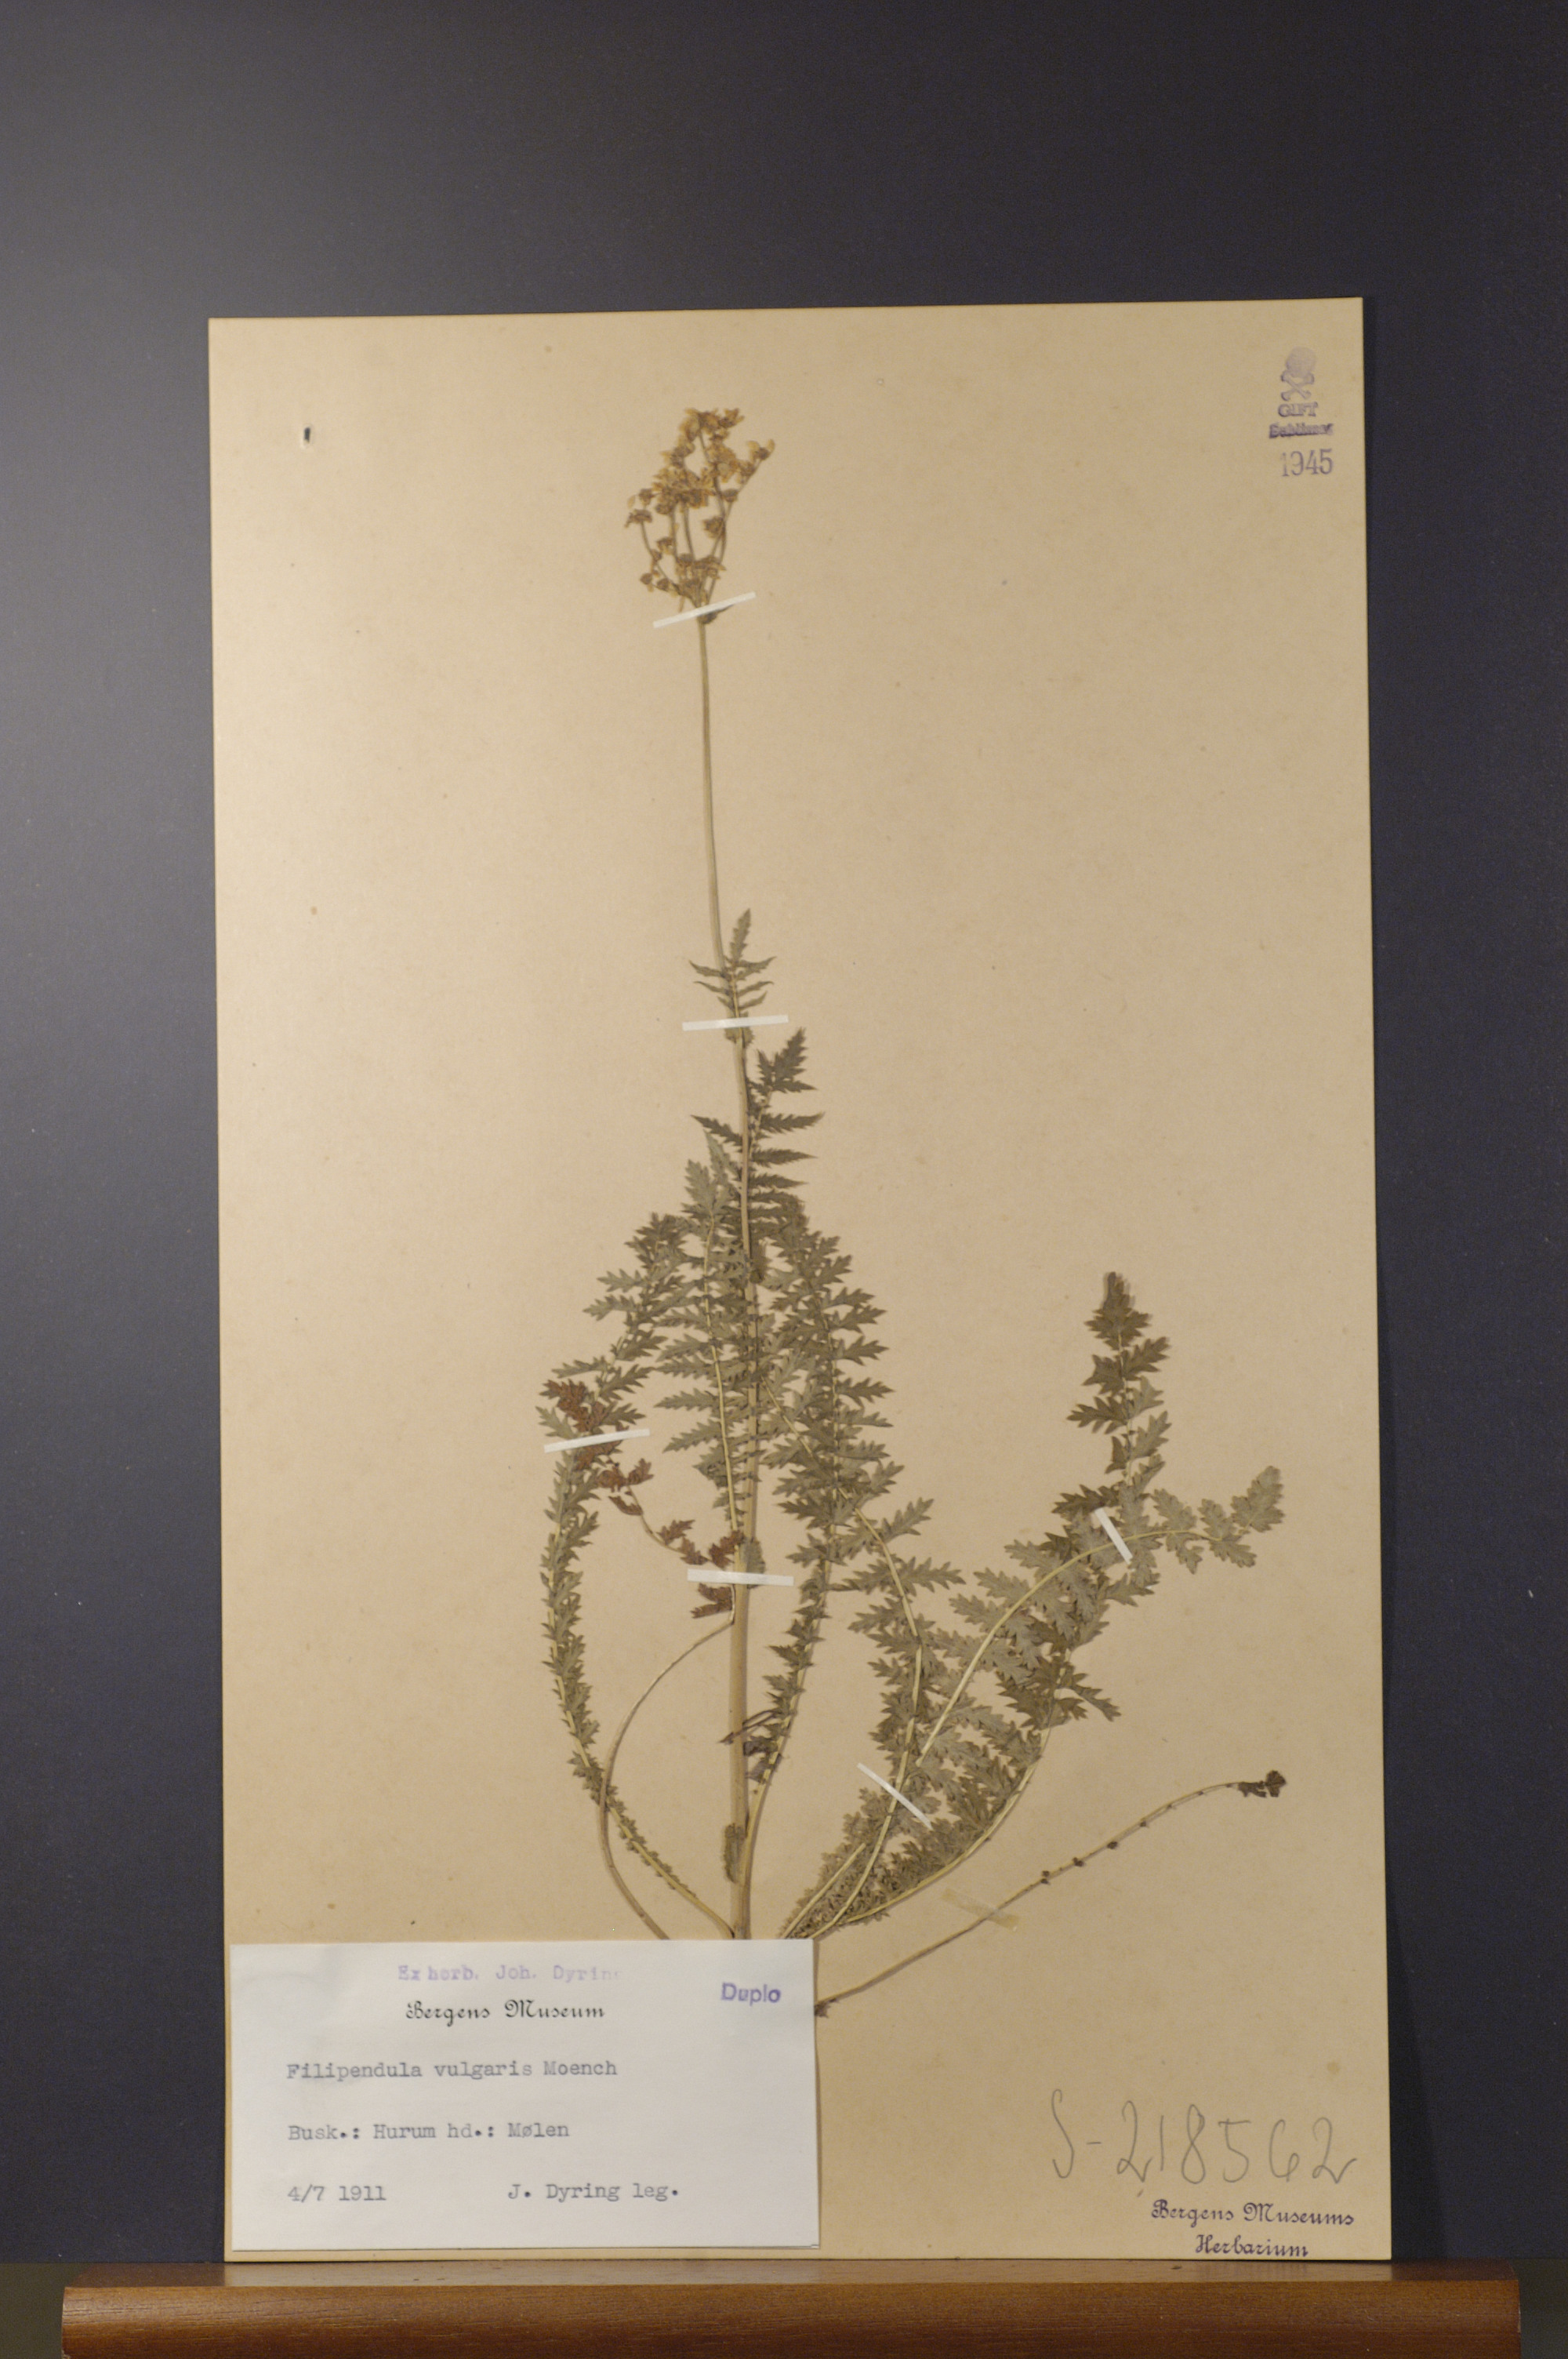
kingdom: Plantae
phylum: Tracheophyta
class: Magnoliopsida
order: Rosales
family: Rosaceae
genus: Filipendula
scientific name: Filipendula vulgaris
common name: Dropwort
